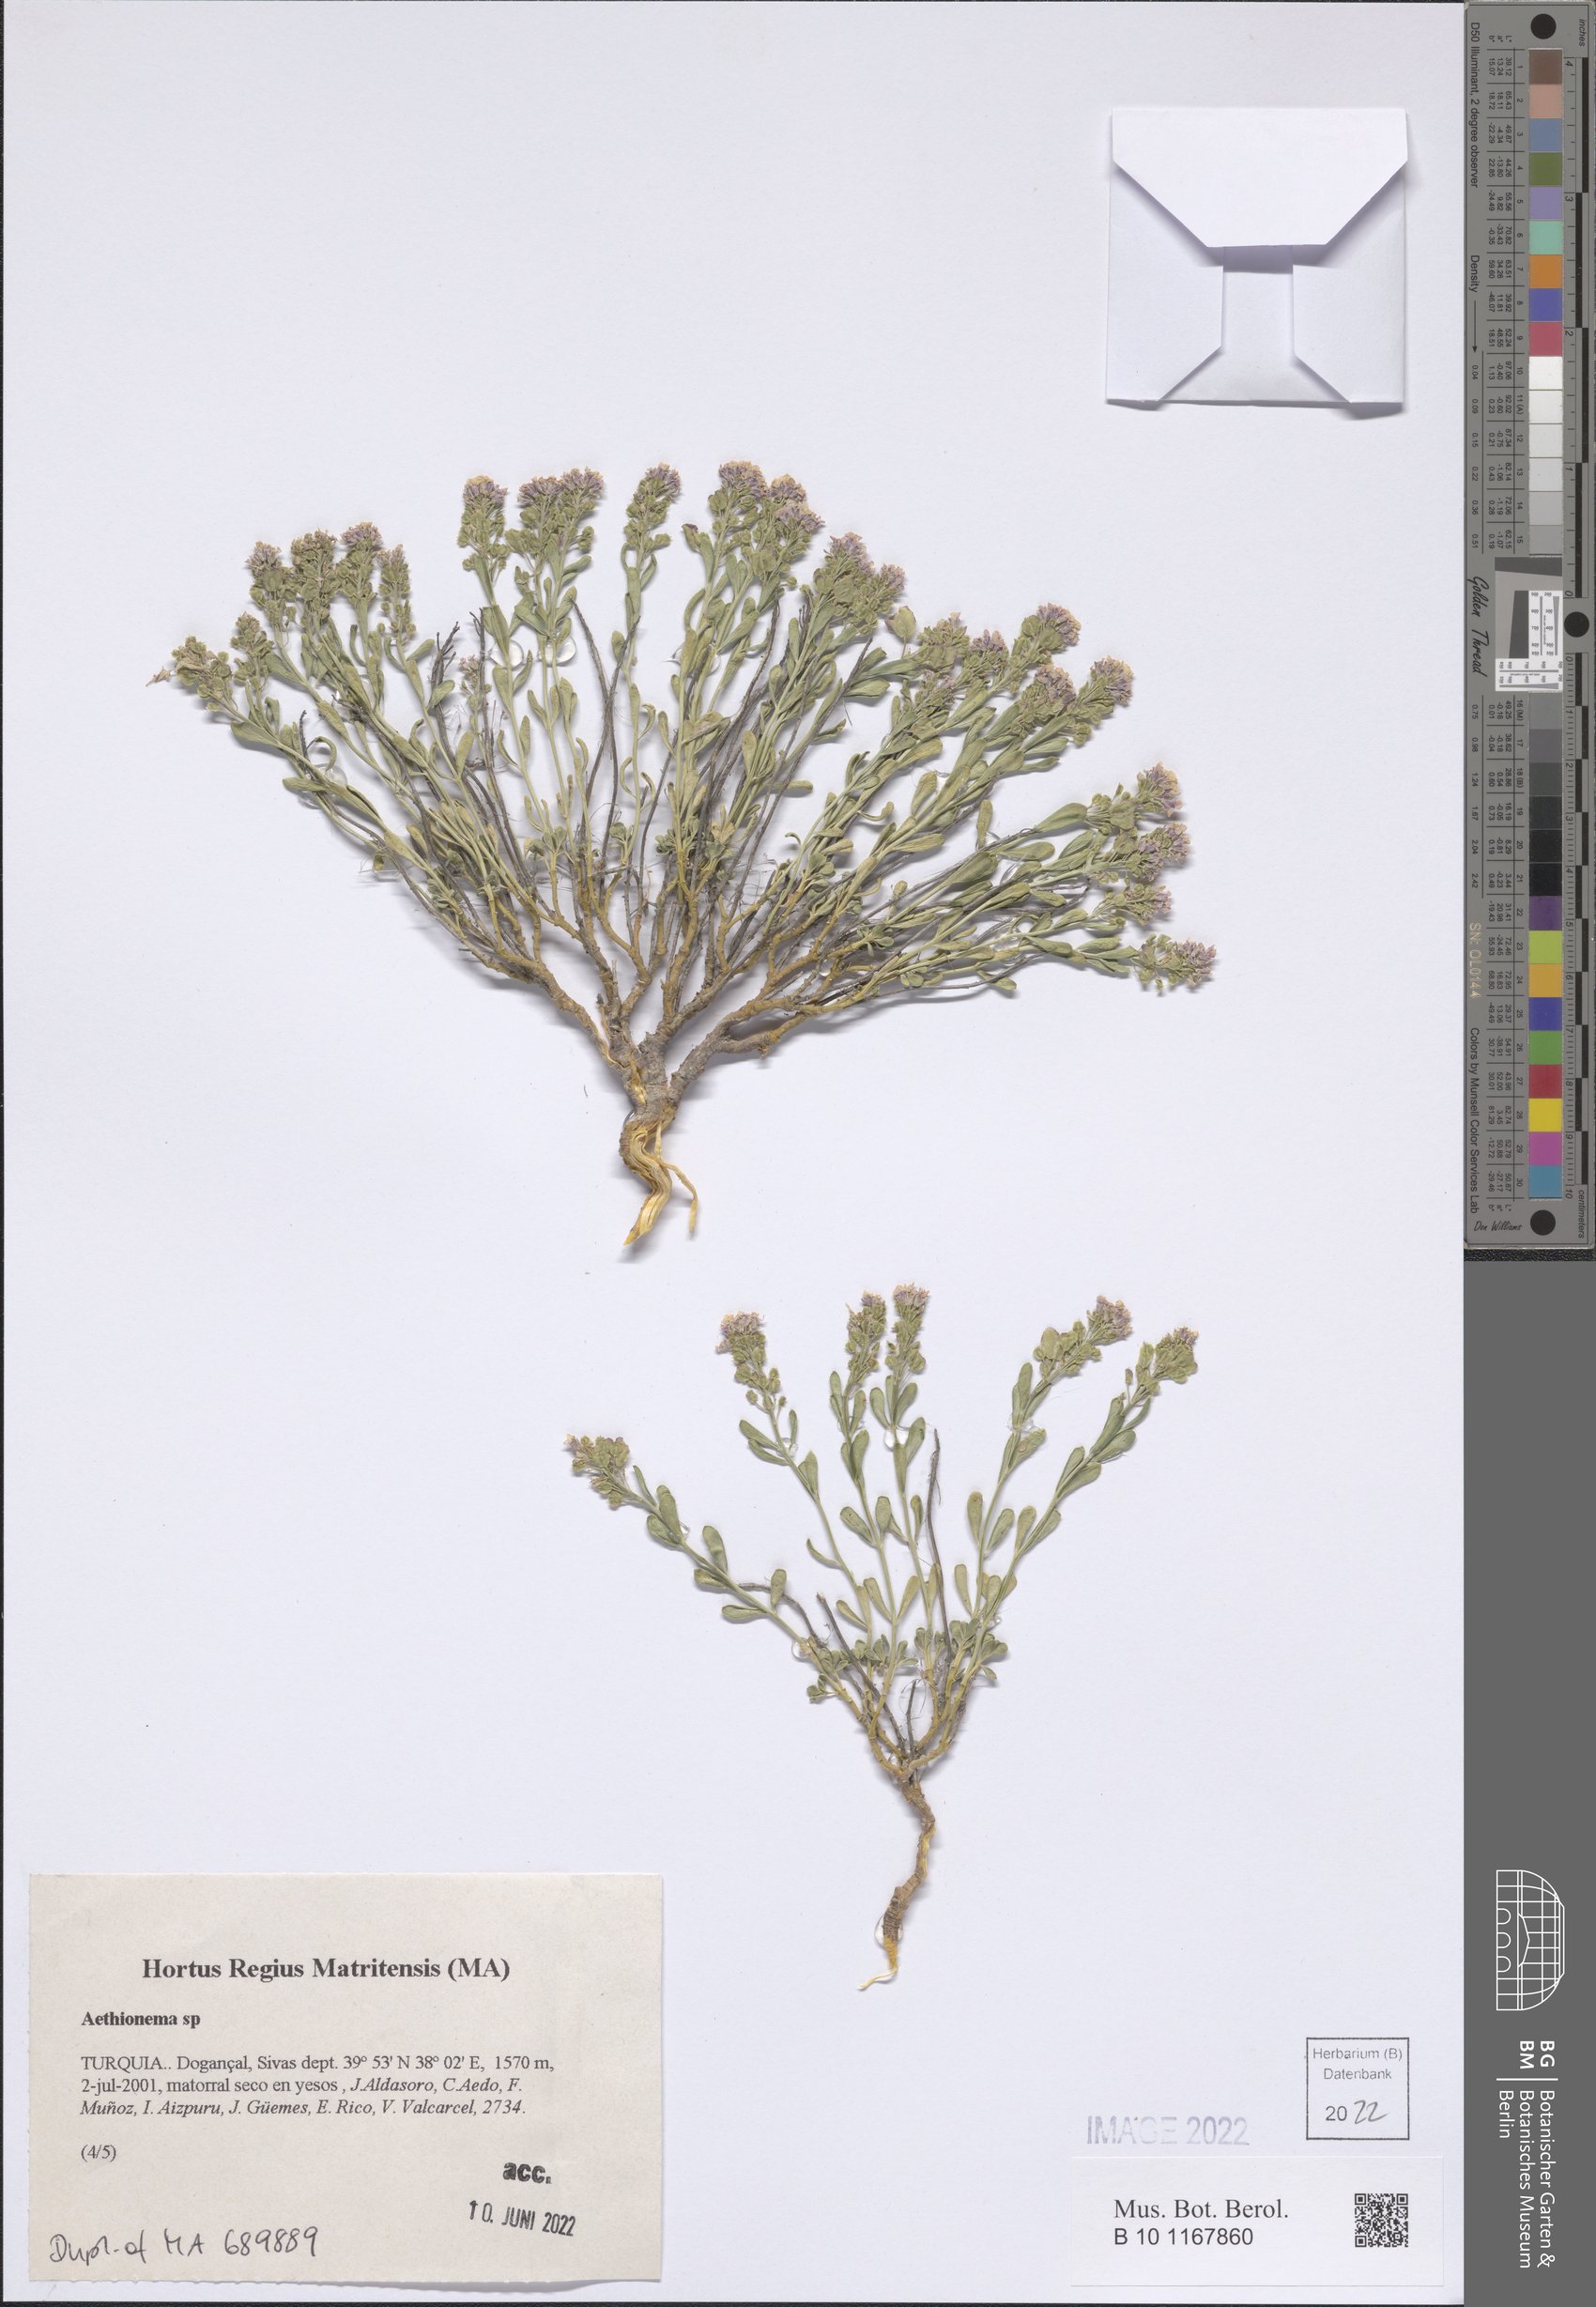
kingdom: Plantae
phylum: Tracheophyta
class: Magnoliopsida
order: Brassicales
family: Brassicaceae
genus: Aethionema
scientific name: Aethionema
